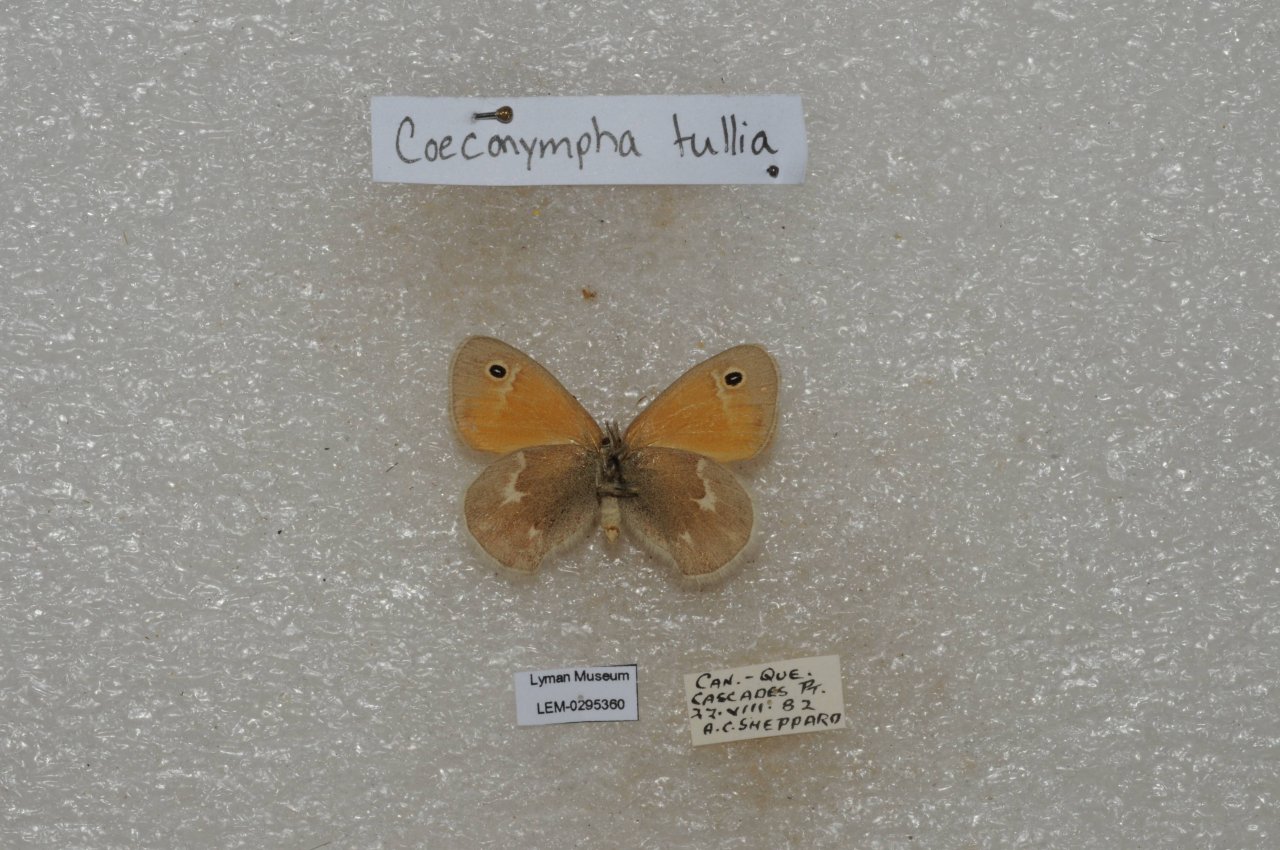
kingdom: Animalia
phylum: Arthropoda
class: Insecta
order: Lepidoptera
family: Nymphalidae
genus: Coenonympha
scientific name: Coenonympha tullia
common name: Large Heath
